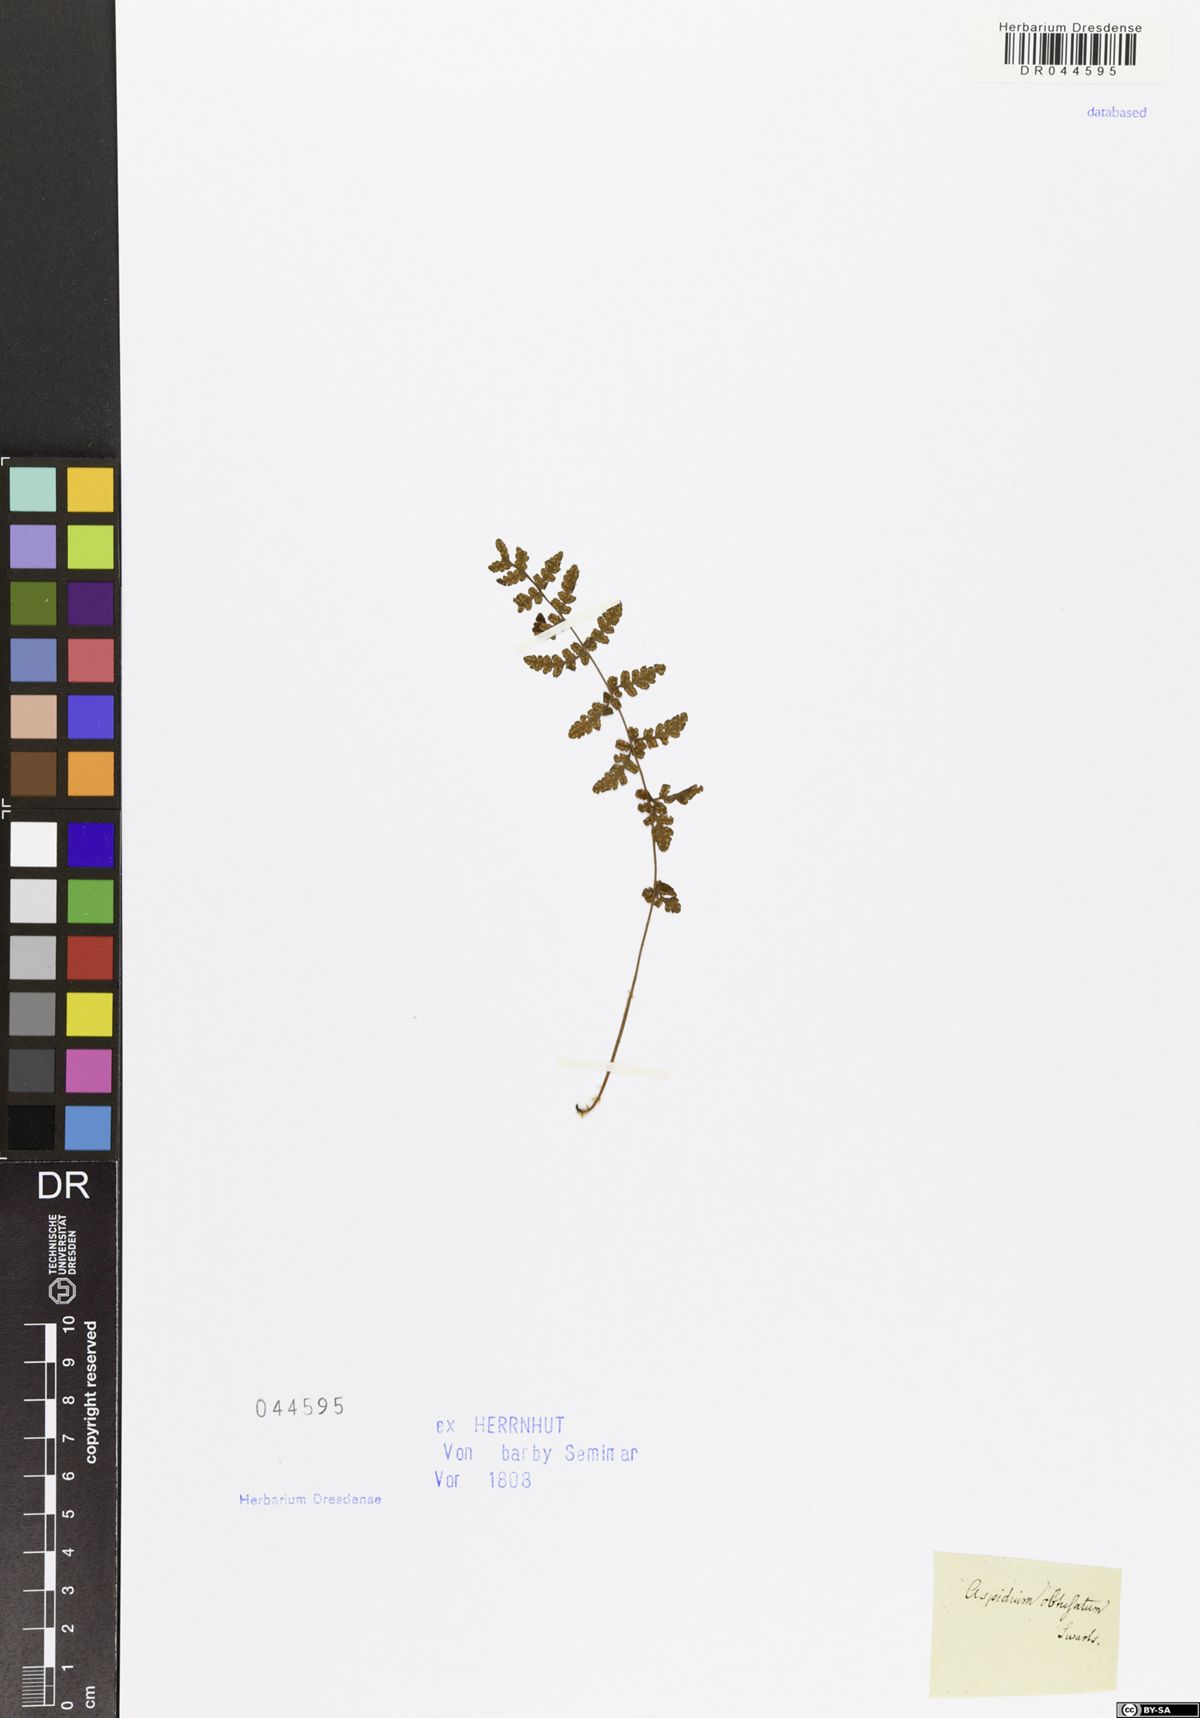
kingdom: Plantae
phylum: Tracheophyta
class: Polypodiopsida
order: Polypodiales
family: Woodsiaceae
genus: Woodsia
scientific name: Woodsia
